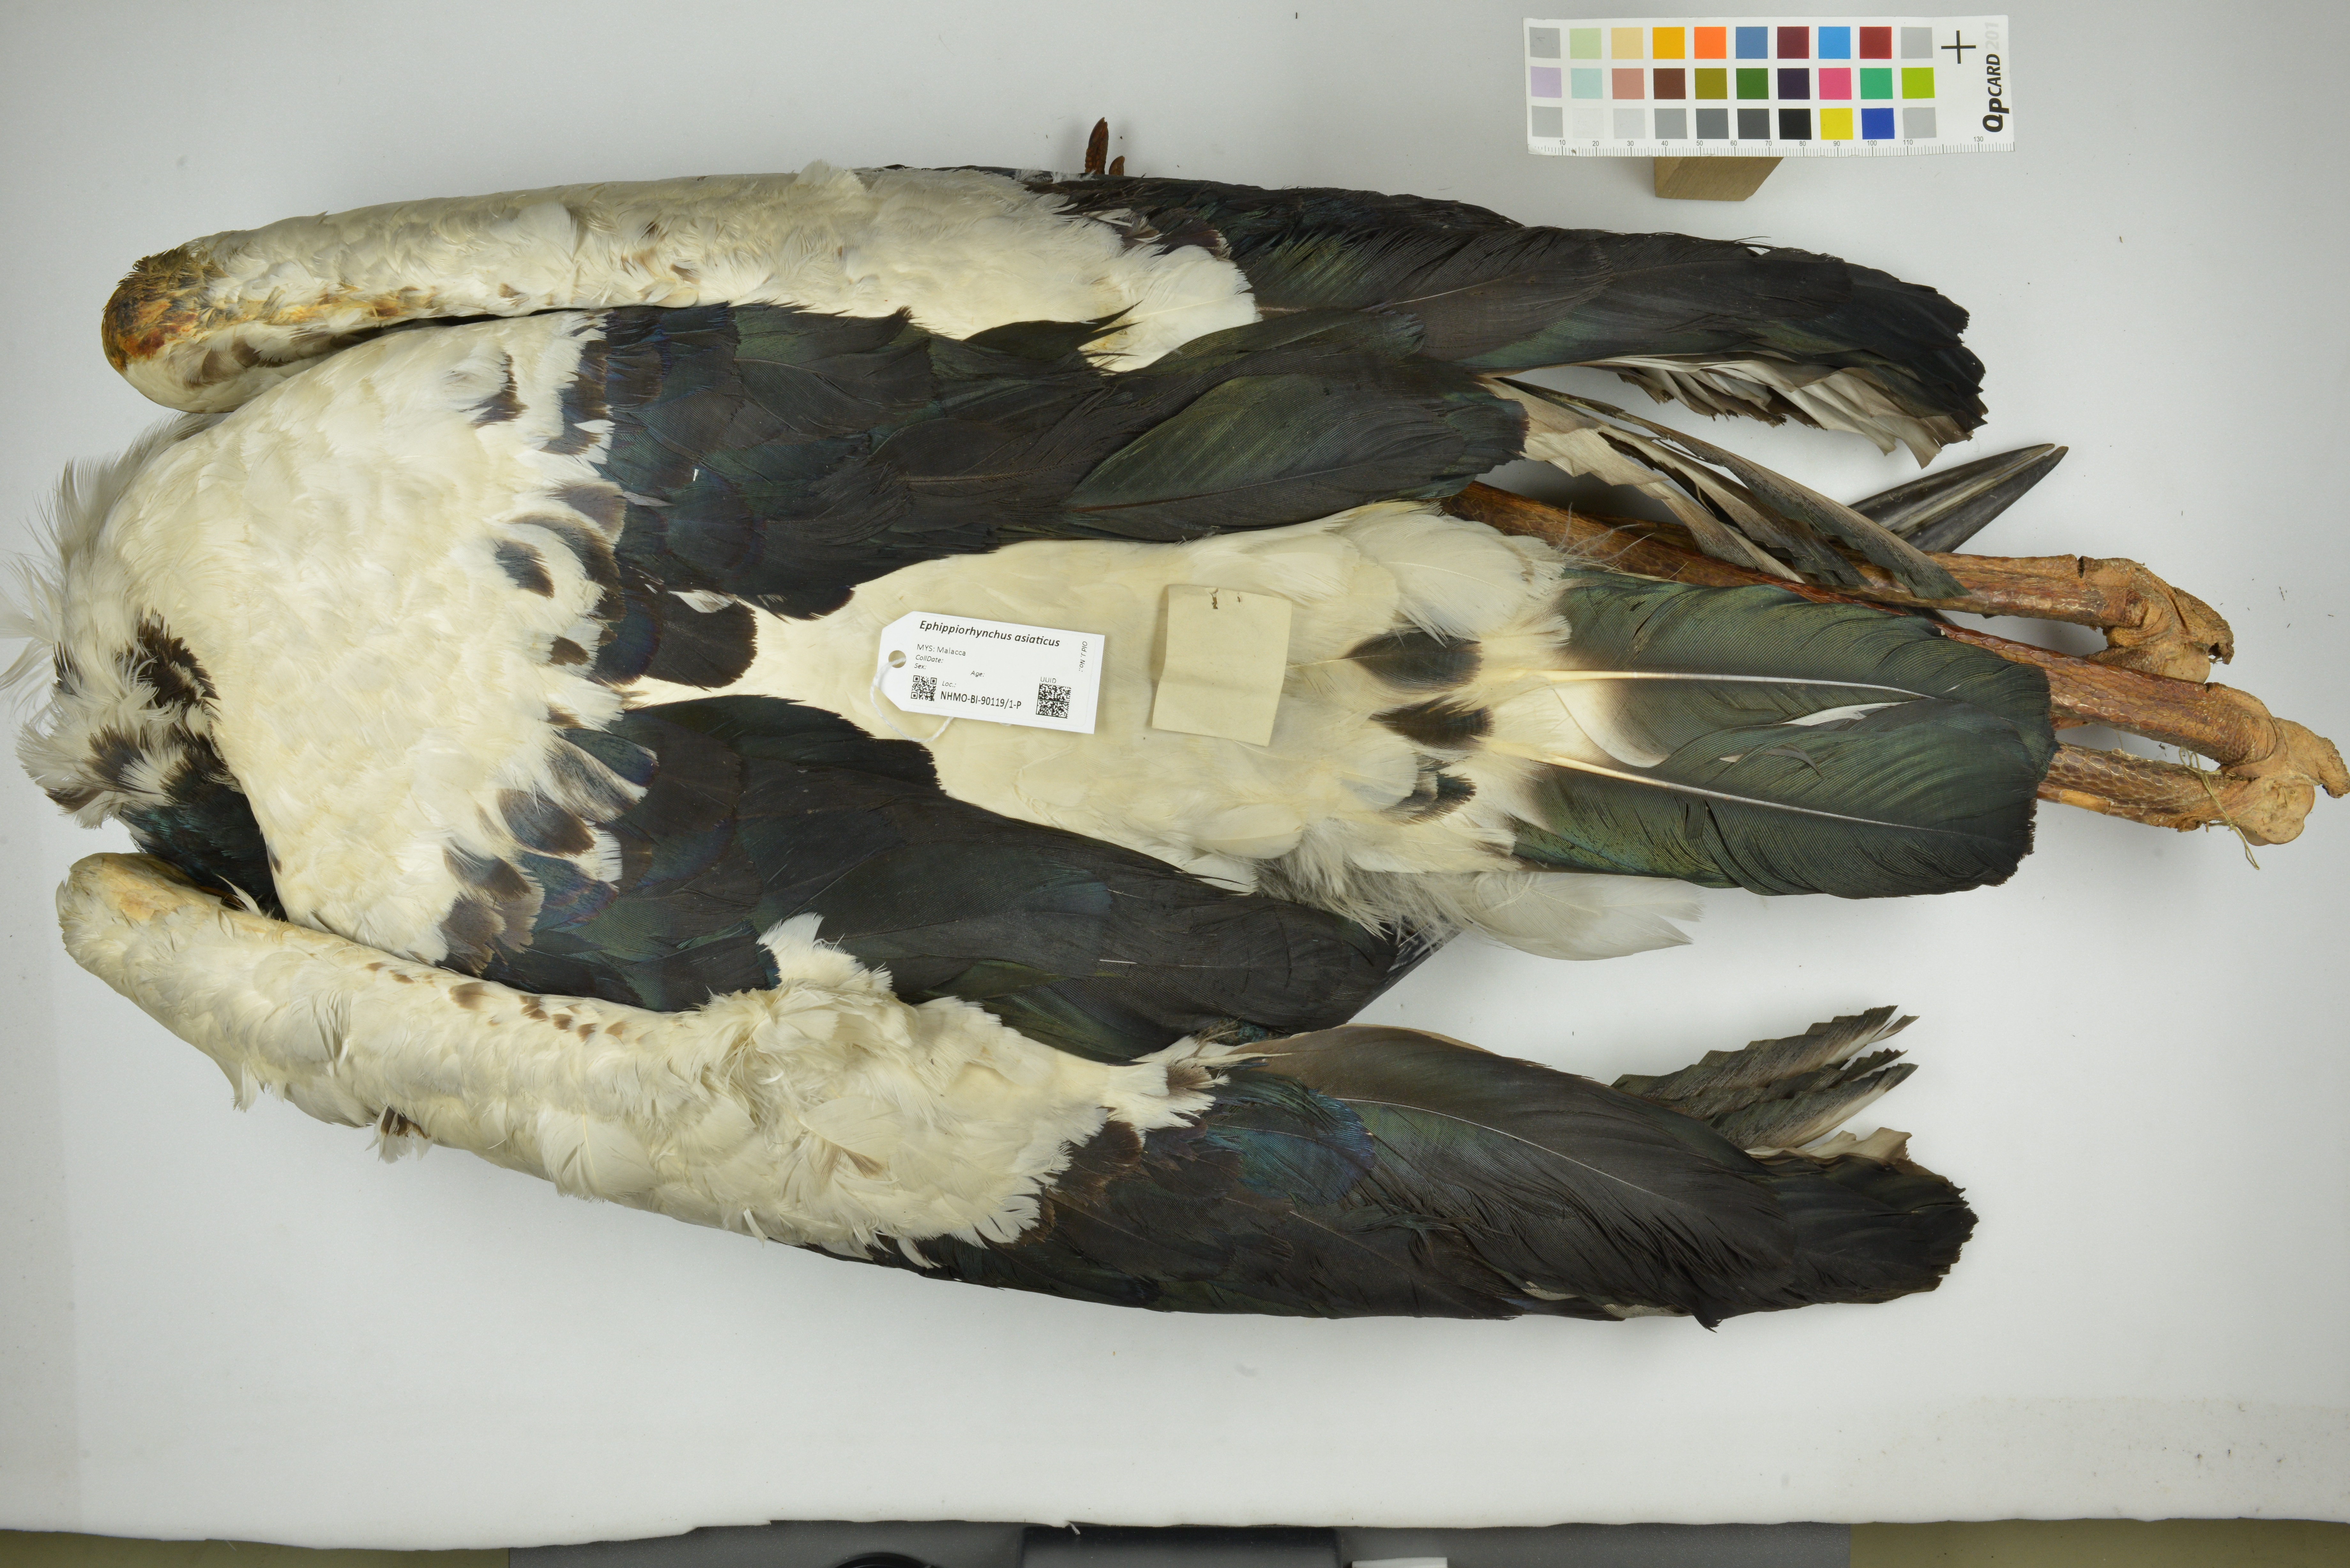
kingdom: Animalia
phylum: Chordata
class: Aves
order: Ciconiiformes
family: Ciconiidae
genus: Ephippiorhynchus
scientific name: Ephippiorhynchus asiaticus
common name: Black-necked stork
